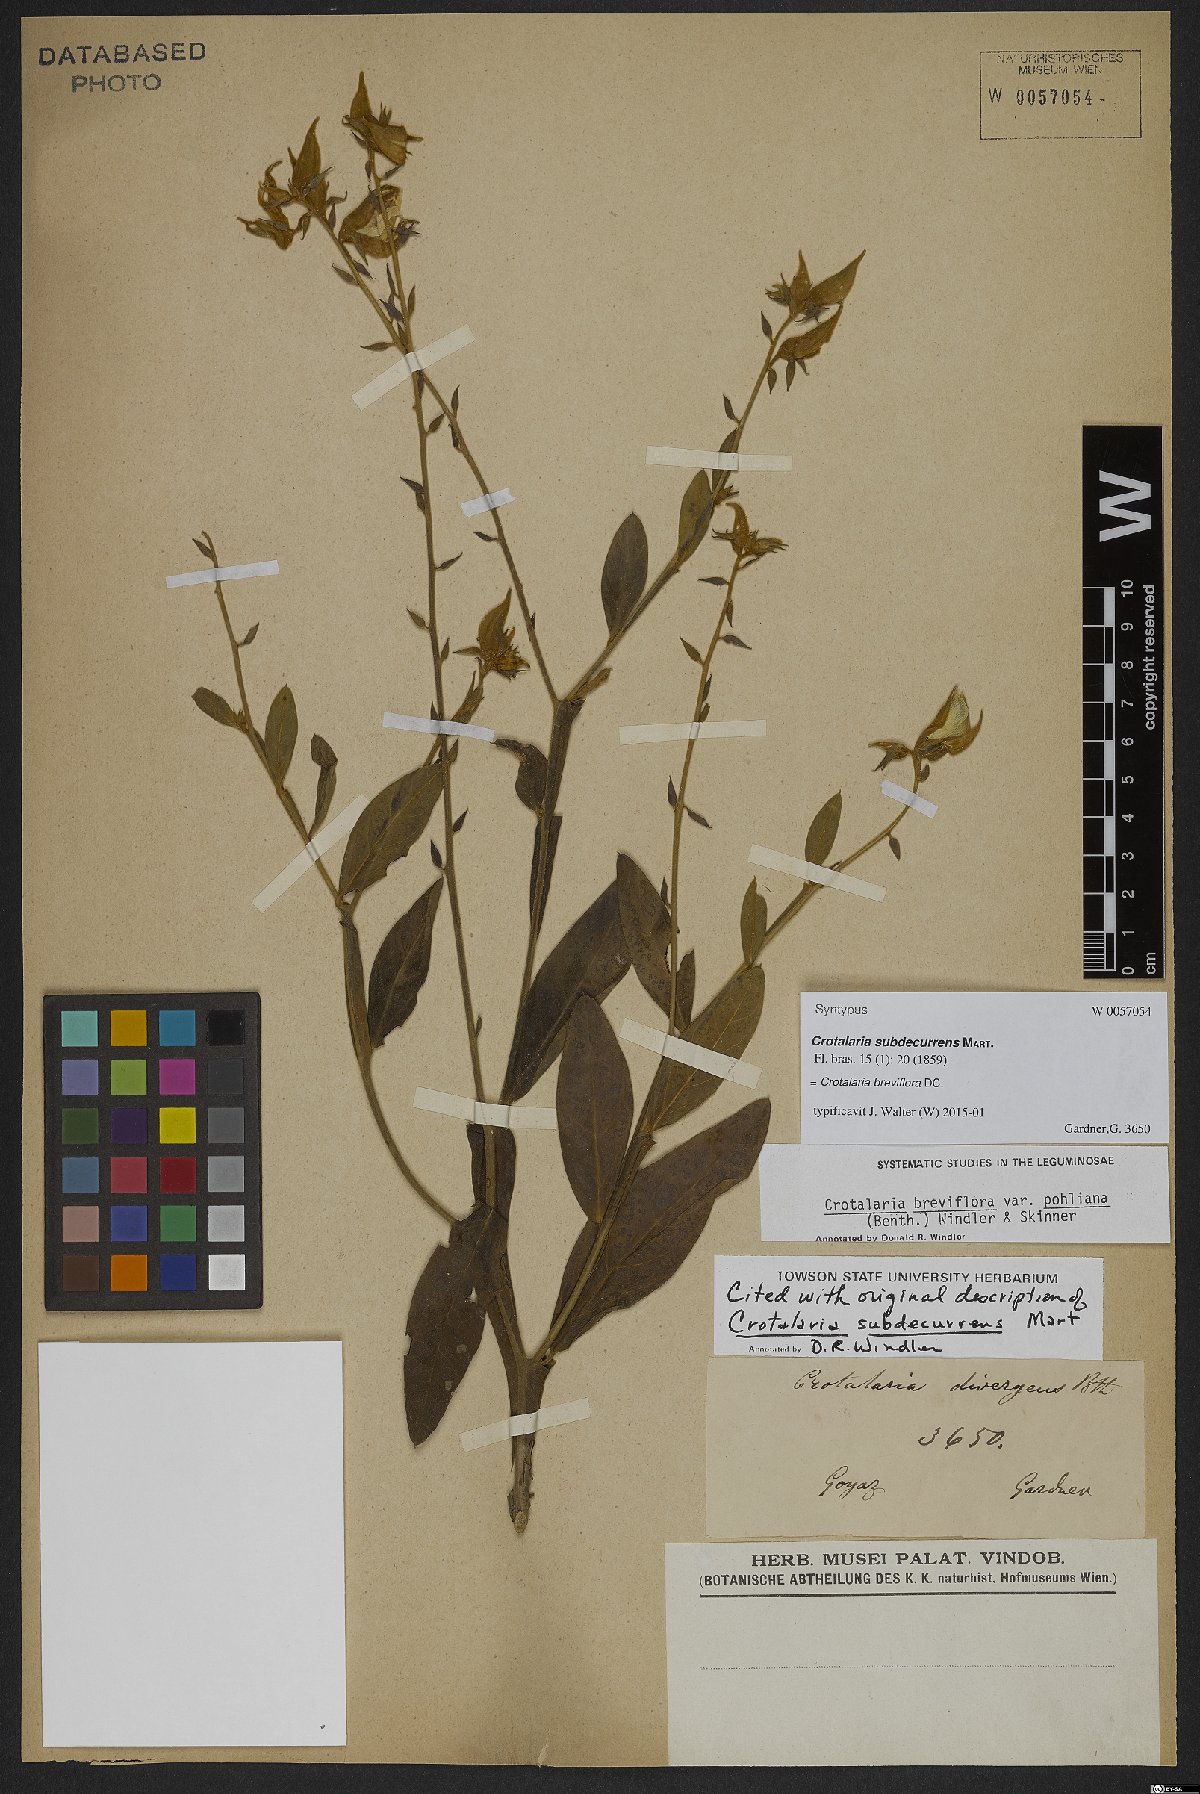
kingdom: Plantae
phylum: Tracheophyta
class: Magnoliopsida
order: Fabales
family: Fabaceae
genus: Crotalaria
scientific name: Crotalaria breviflora
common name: Short-flower crotalaria
